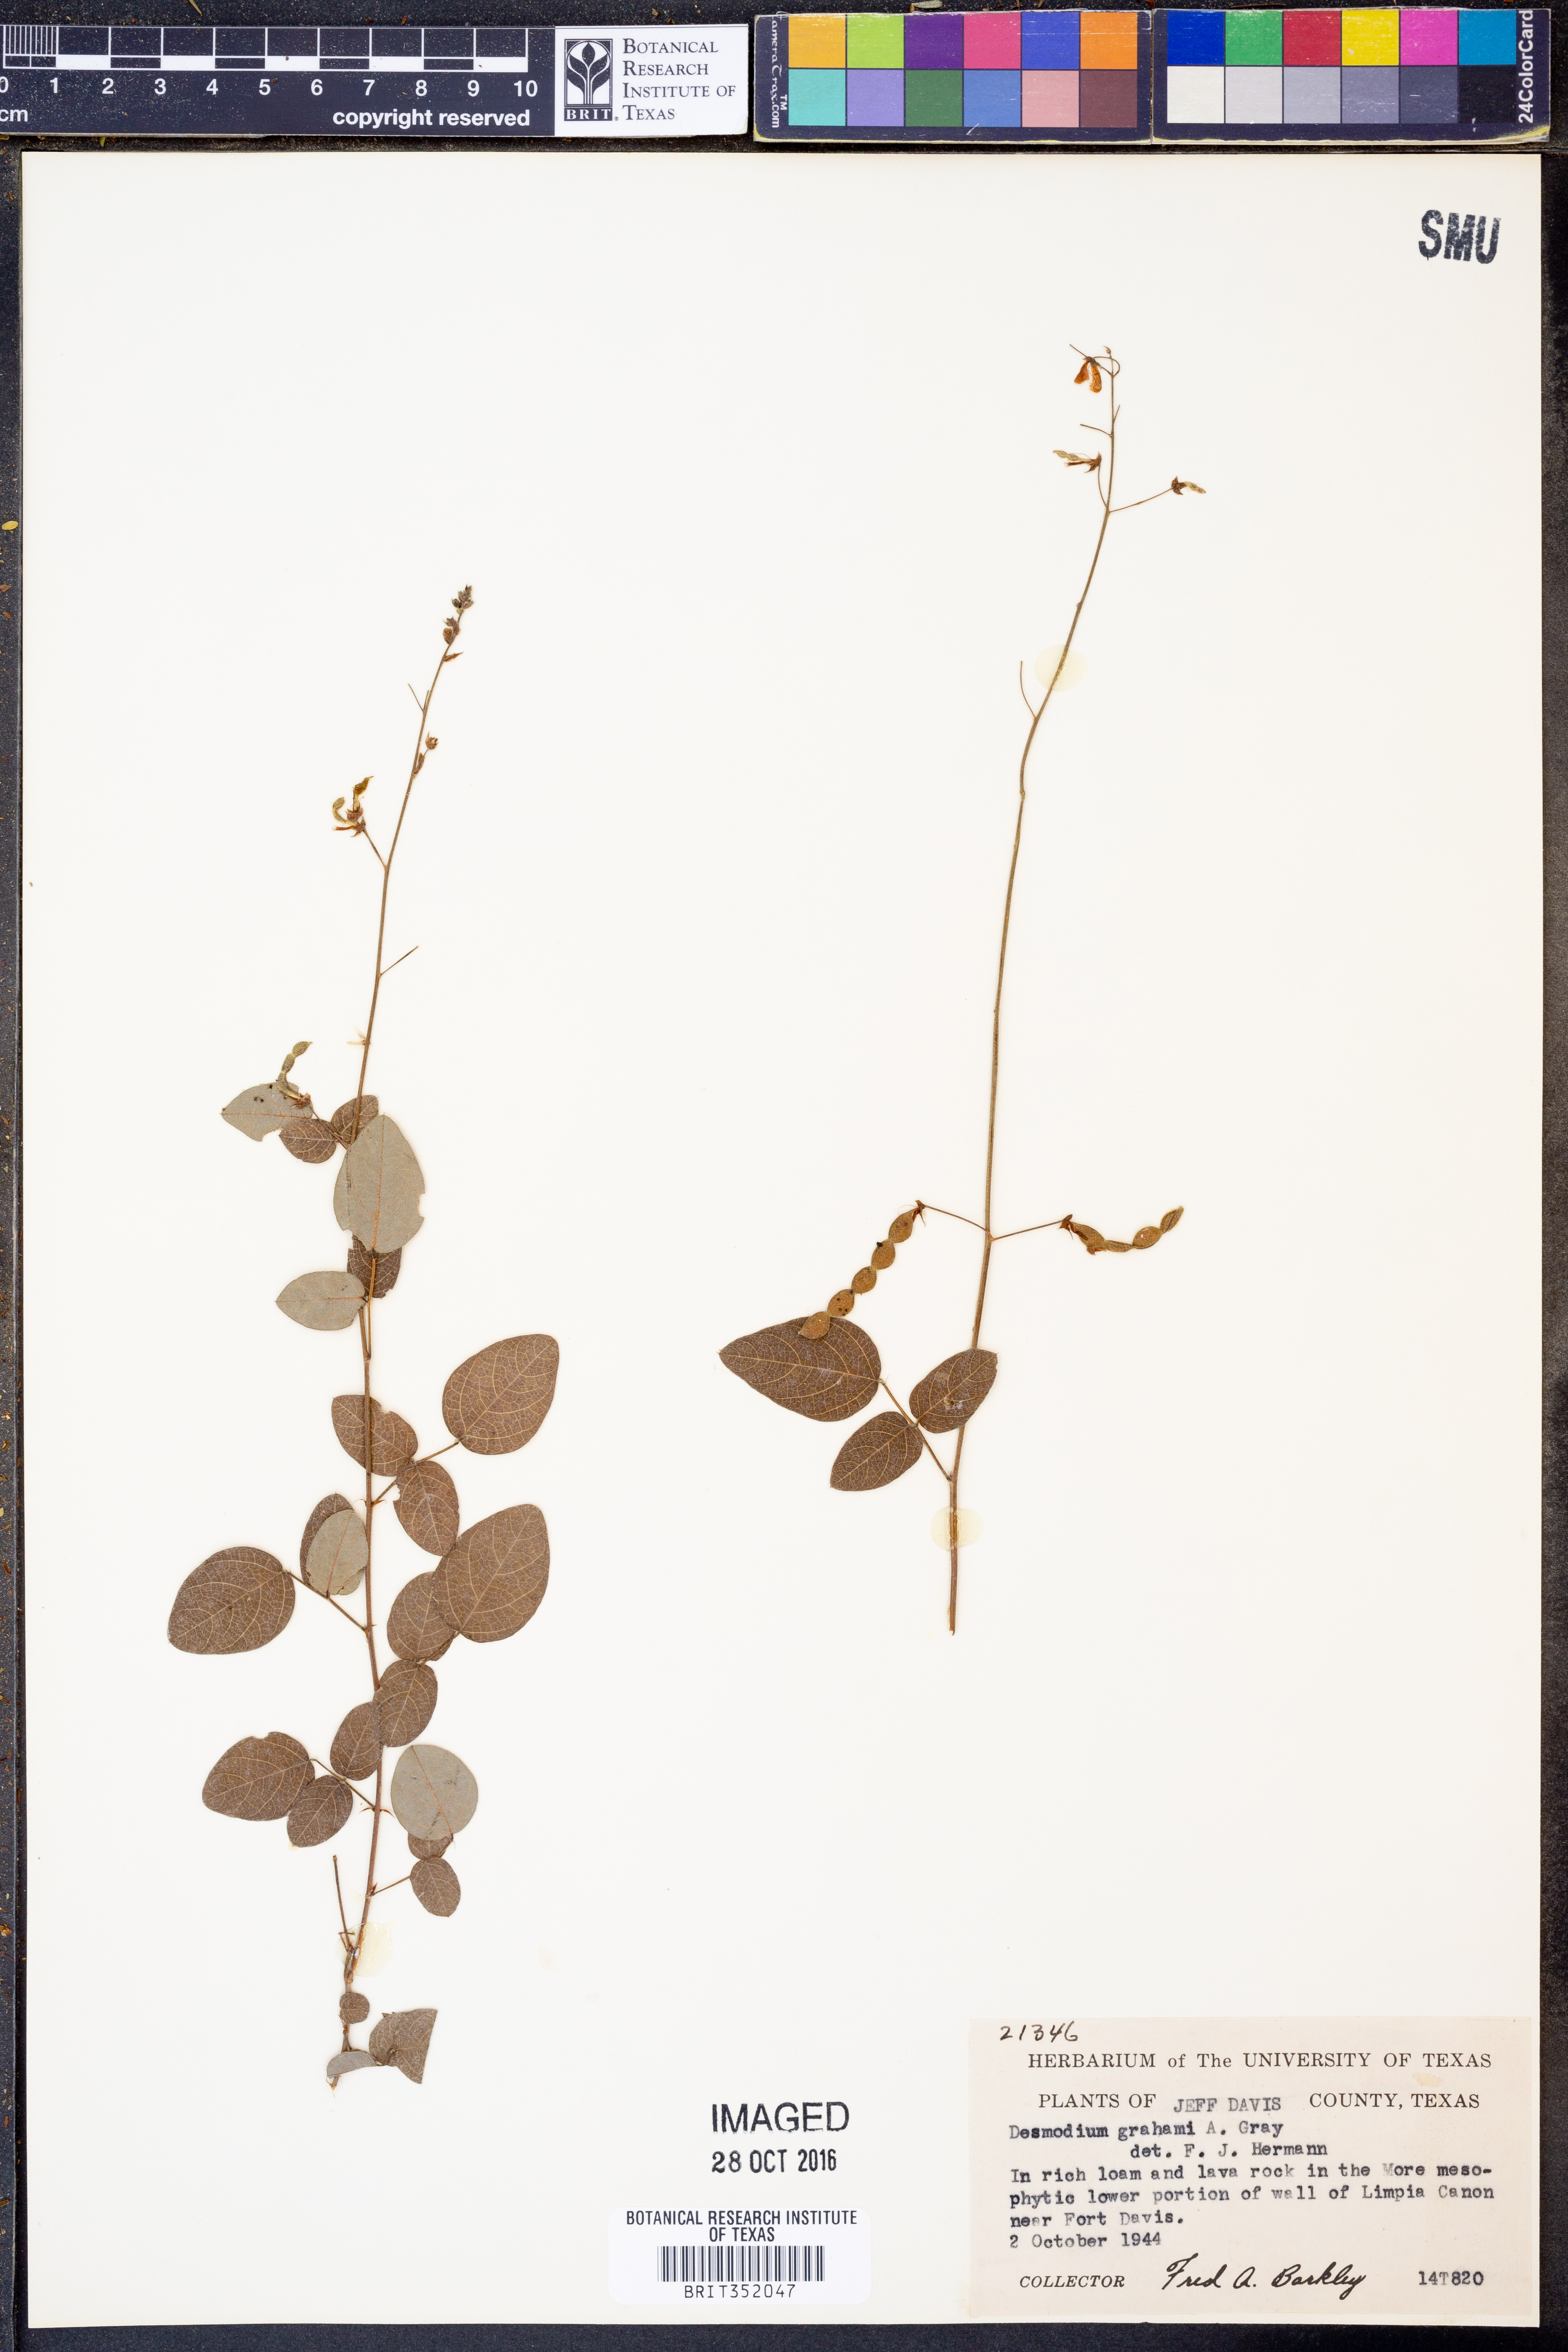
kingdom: Plantae
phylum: Tracheophyta
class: Magnoliopsida
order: Fabales
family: Fabaceae
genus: Desmodium
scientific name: Desmodium grahamii
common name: Graham's tick-trefoil
